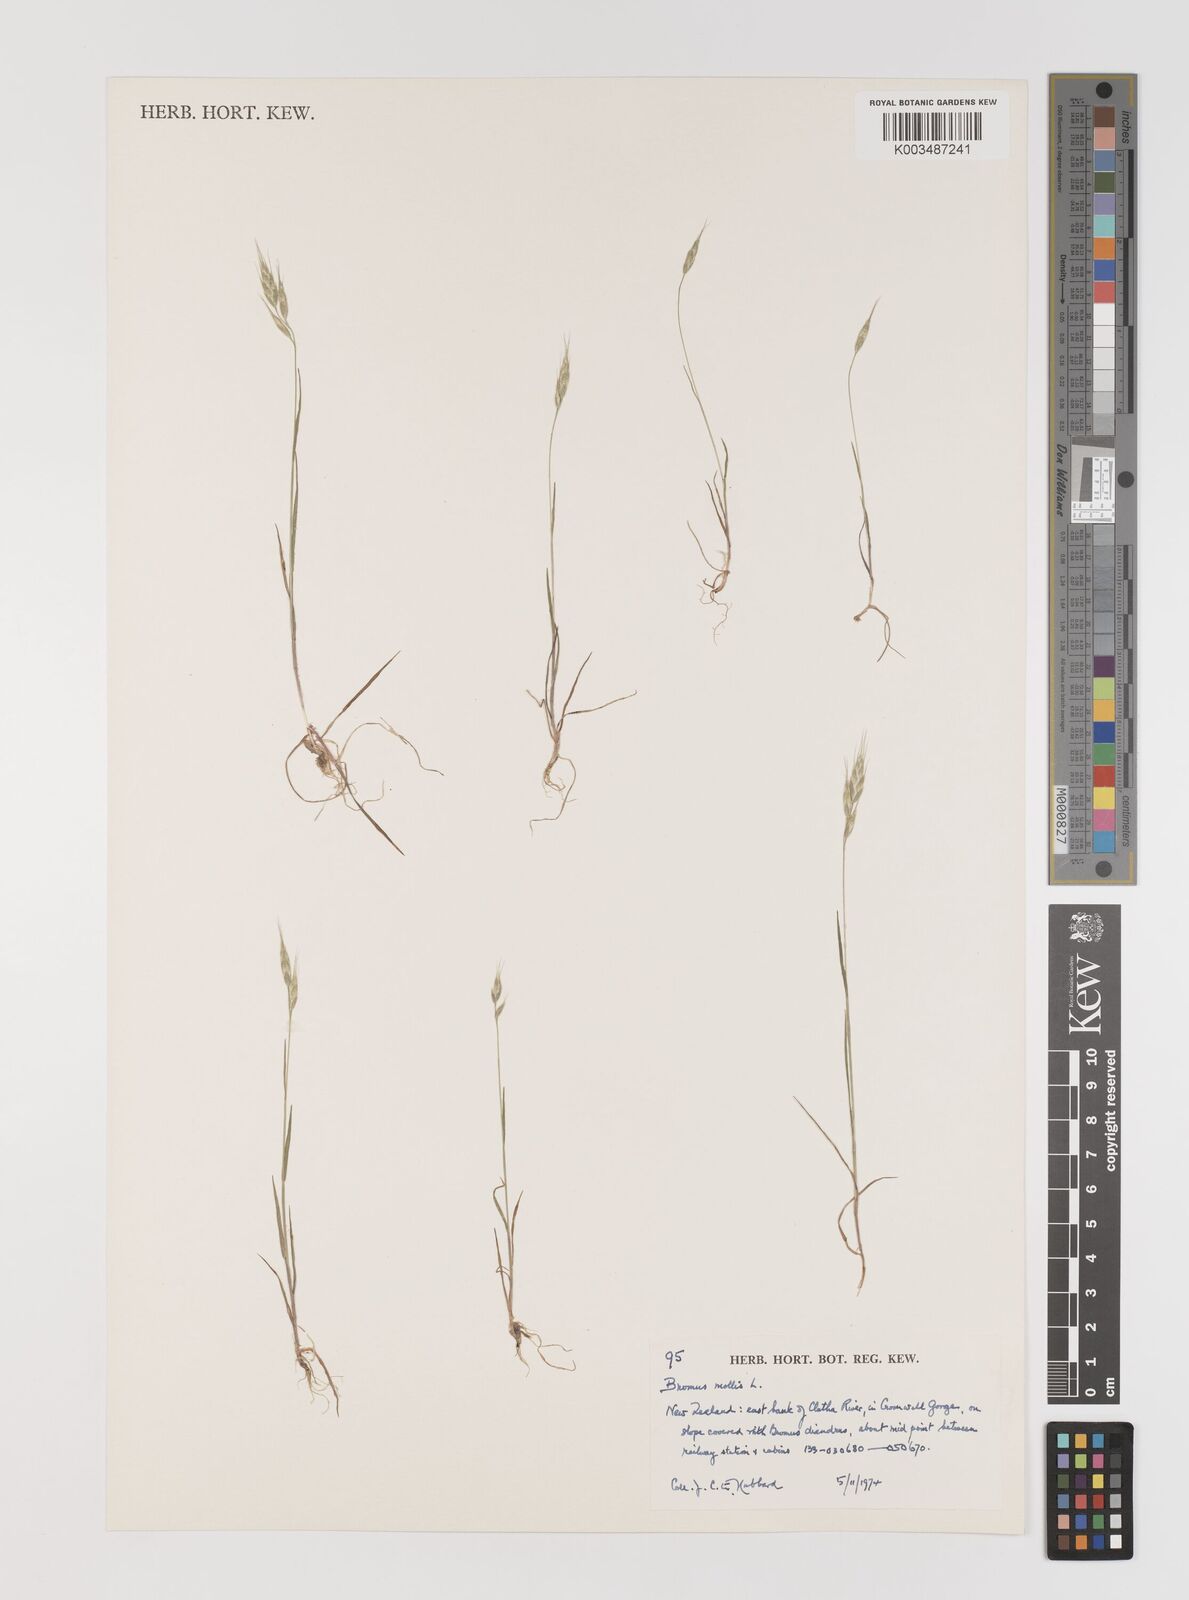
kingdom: Plantae
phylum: Tracheophyta
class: Liliopsida
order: Poales
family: Poaceae
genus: Bromus
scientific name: Bromus hordeaceus
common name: Soft brome
